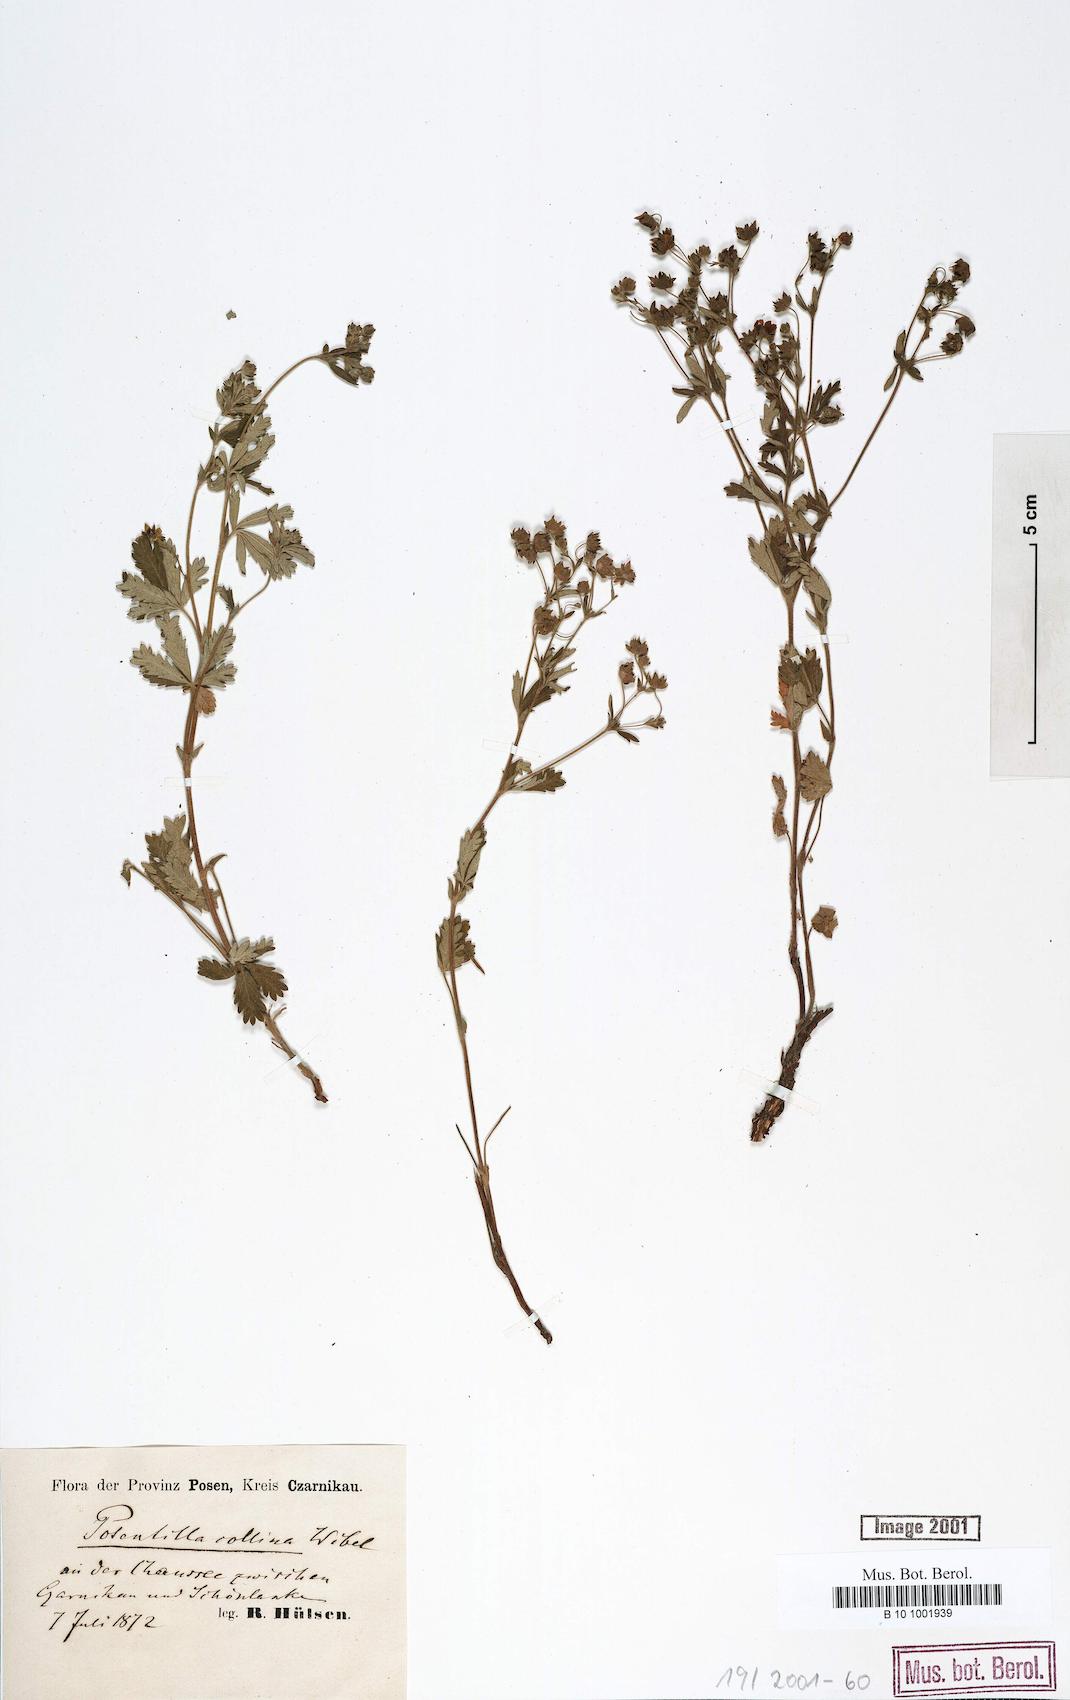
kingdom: Plantae
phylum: Tracheophyta
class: Magnoliopsida
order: Rosales
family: Rosaceae
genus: Potentilla
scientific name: Potentilla collina
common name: Palmleaf cinquefoil
